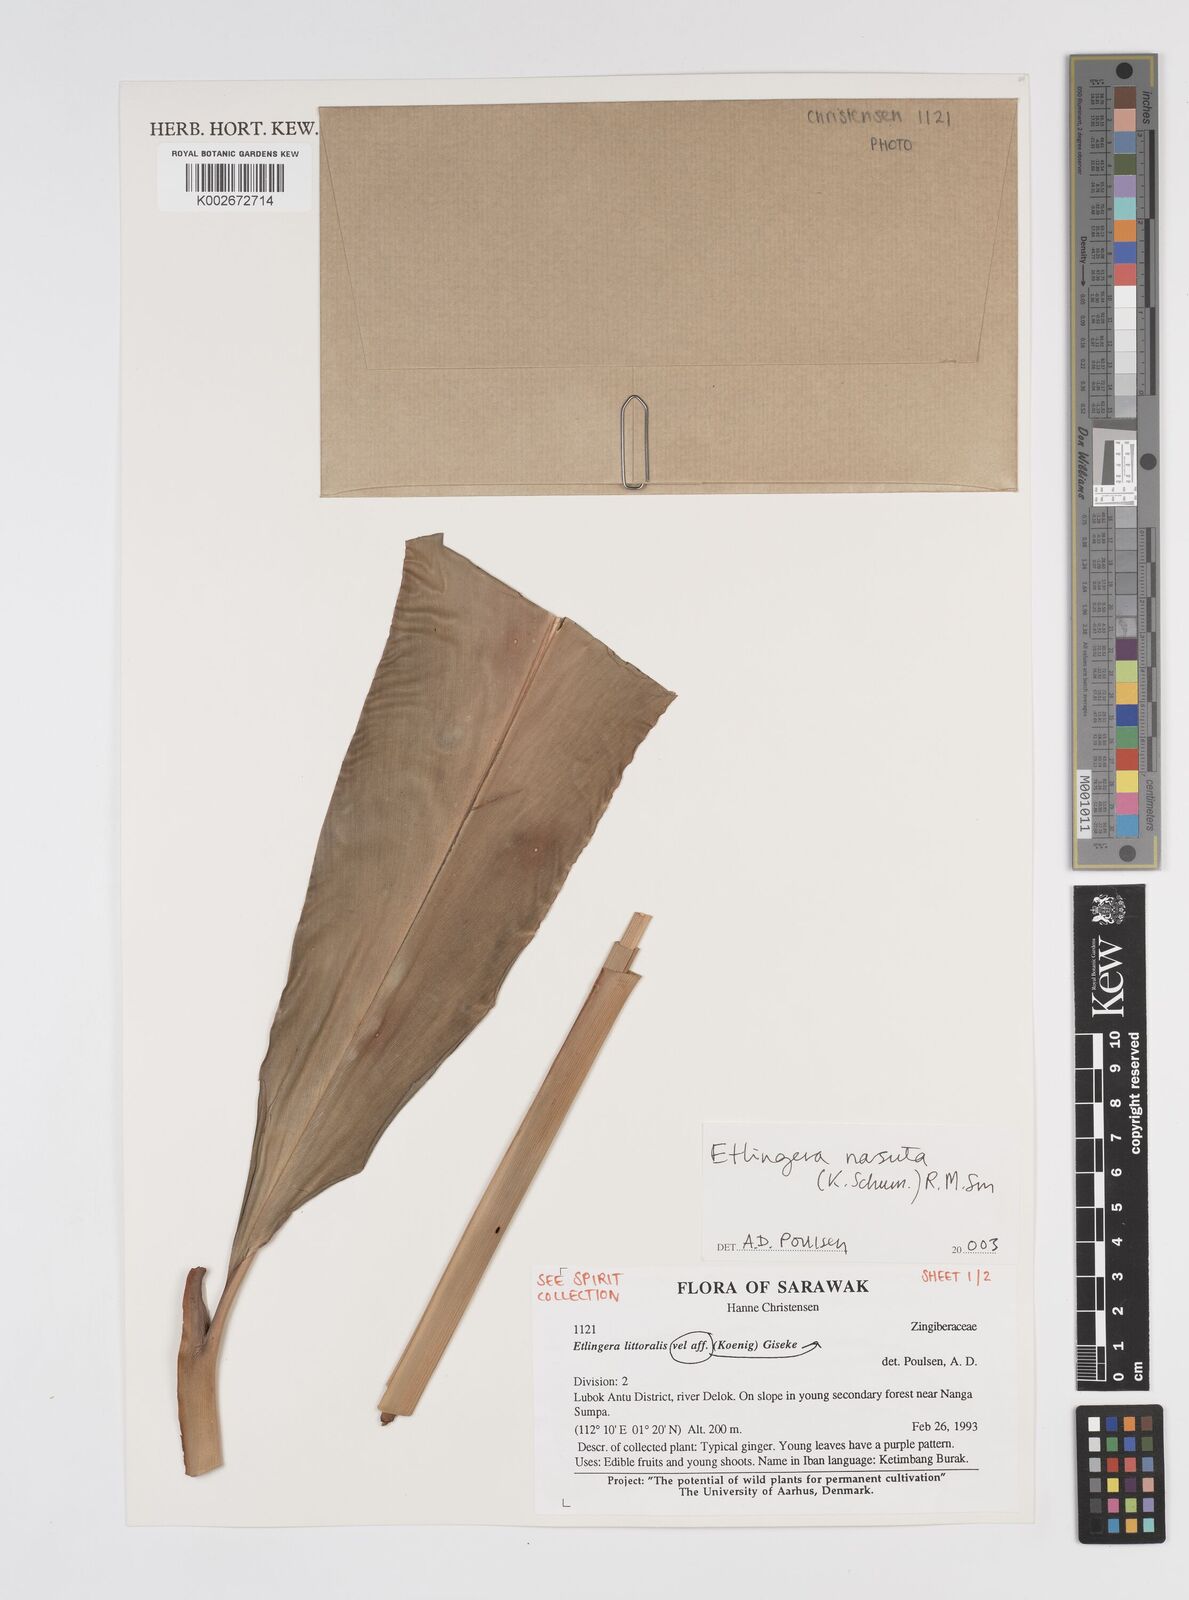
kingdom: Plantae
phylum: Tracheophyta
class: Liliopsida
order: Zingiberales
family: Zingiberaceae
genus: Etlingera
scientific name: Etlingera nasuta
